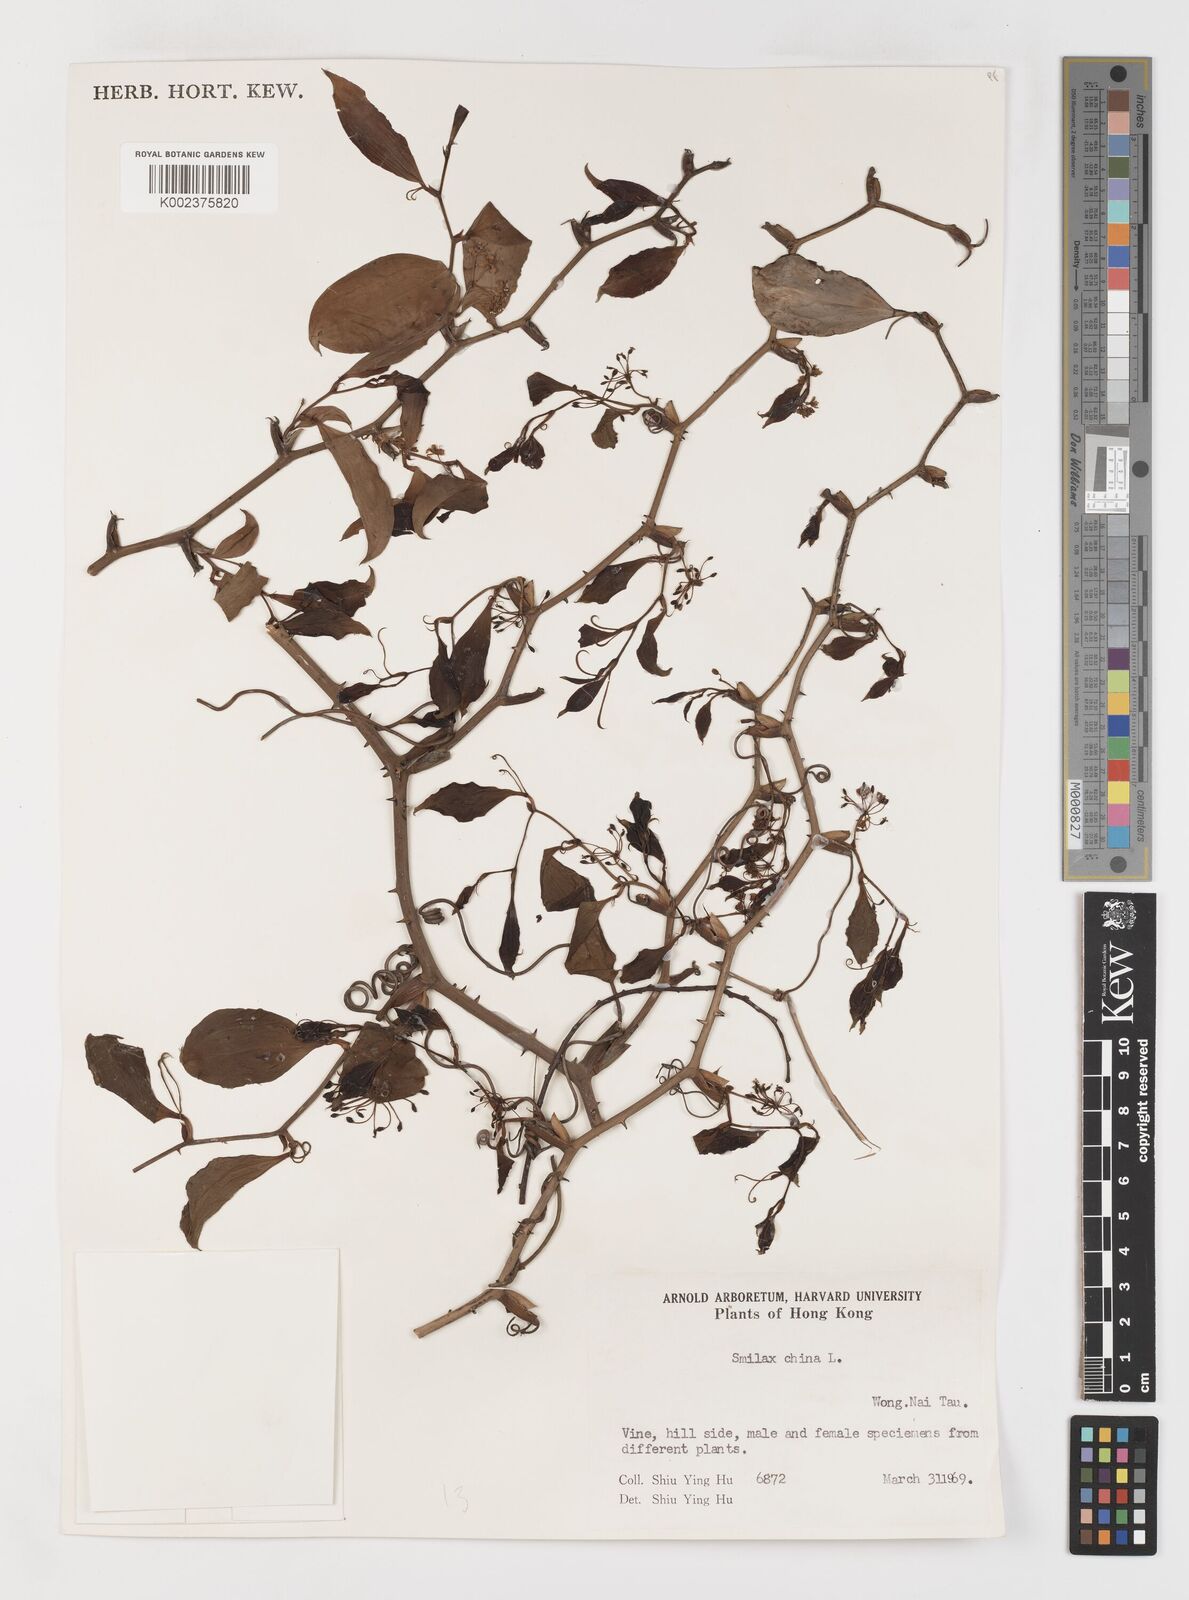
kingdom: Plantae
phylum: Tracheophyta
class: Liliopsida
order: Liliales
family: Smilacaceae
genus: Smilax
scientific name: Smilax china
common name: Chinaroot
